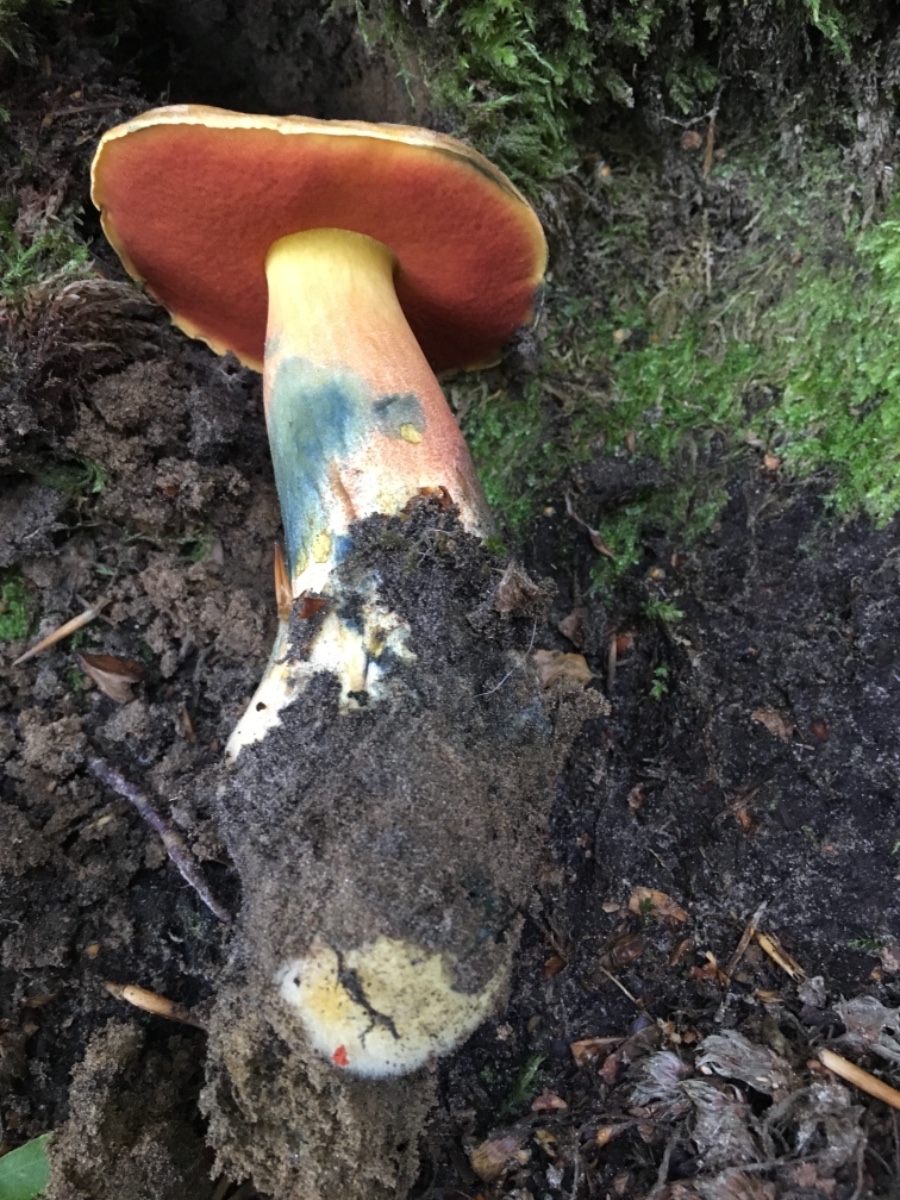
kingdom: Fungi
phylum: Basidiomycota
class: Agaricomycetes
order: Boletales
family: Boletaceae
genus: Neoboletus
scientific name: Neoboletus erythropus
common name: punktstokket indigorørhat
